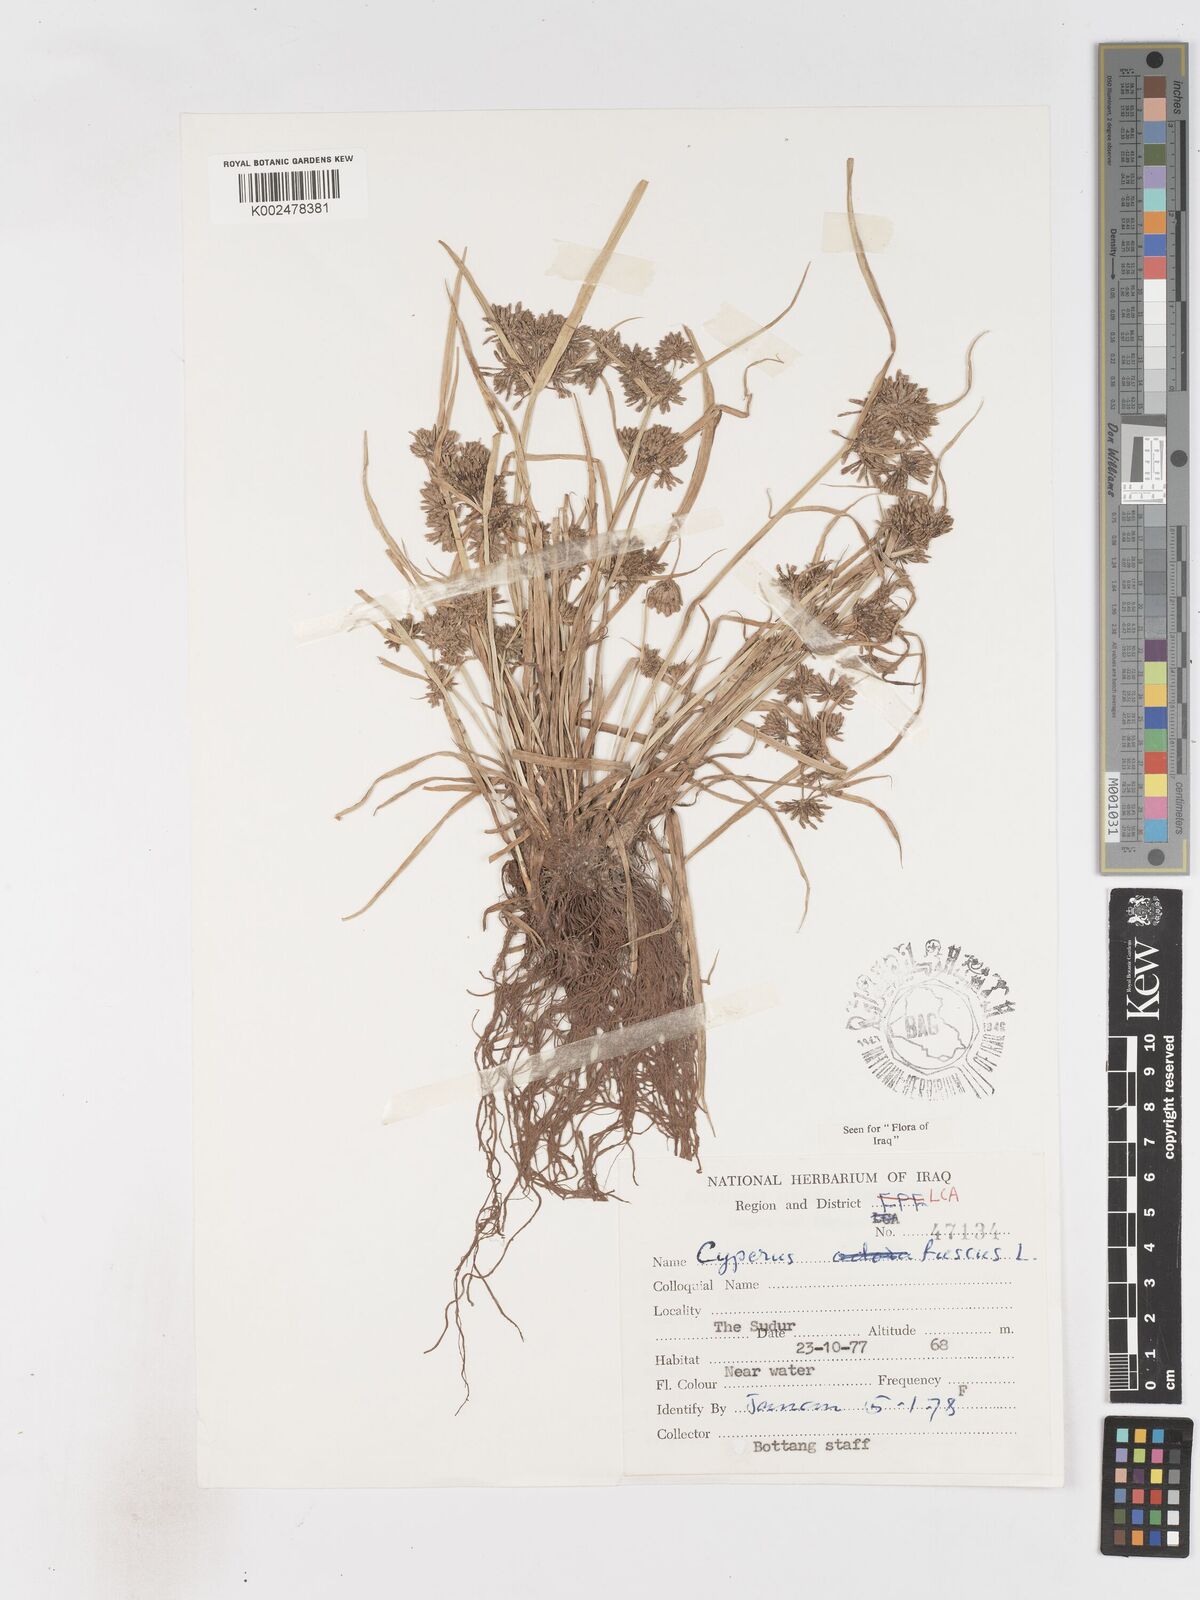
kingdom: Plantae
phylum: Tracheophyta
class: Liliopsida
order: Poales
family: Cyperaceae
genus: Cyperus
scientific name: Cyperus fuscus
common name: Brown galingale
